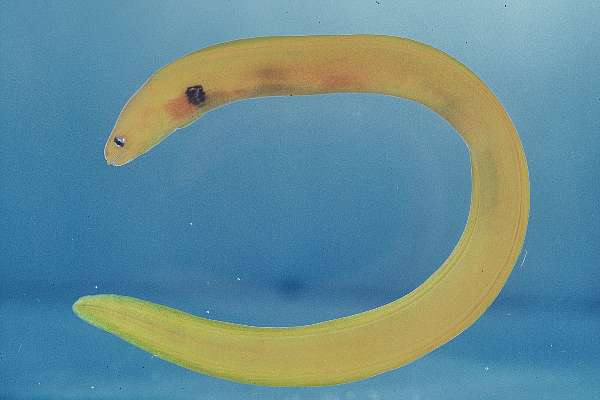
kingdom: Animalia
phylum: Chordata
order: Anguilliformes
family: Muraenidae
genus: Gymnothorax
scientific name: Gymnothorax melatremus
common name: Dwarf moray
